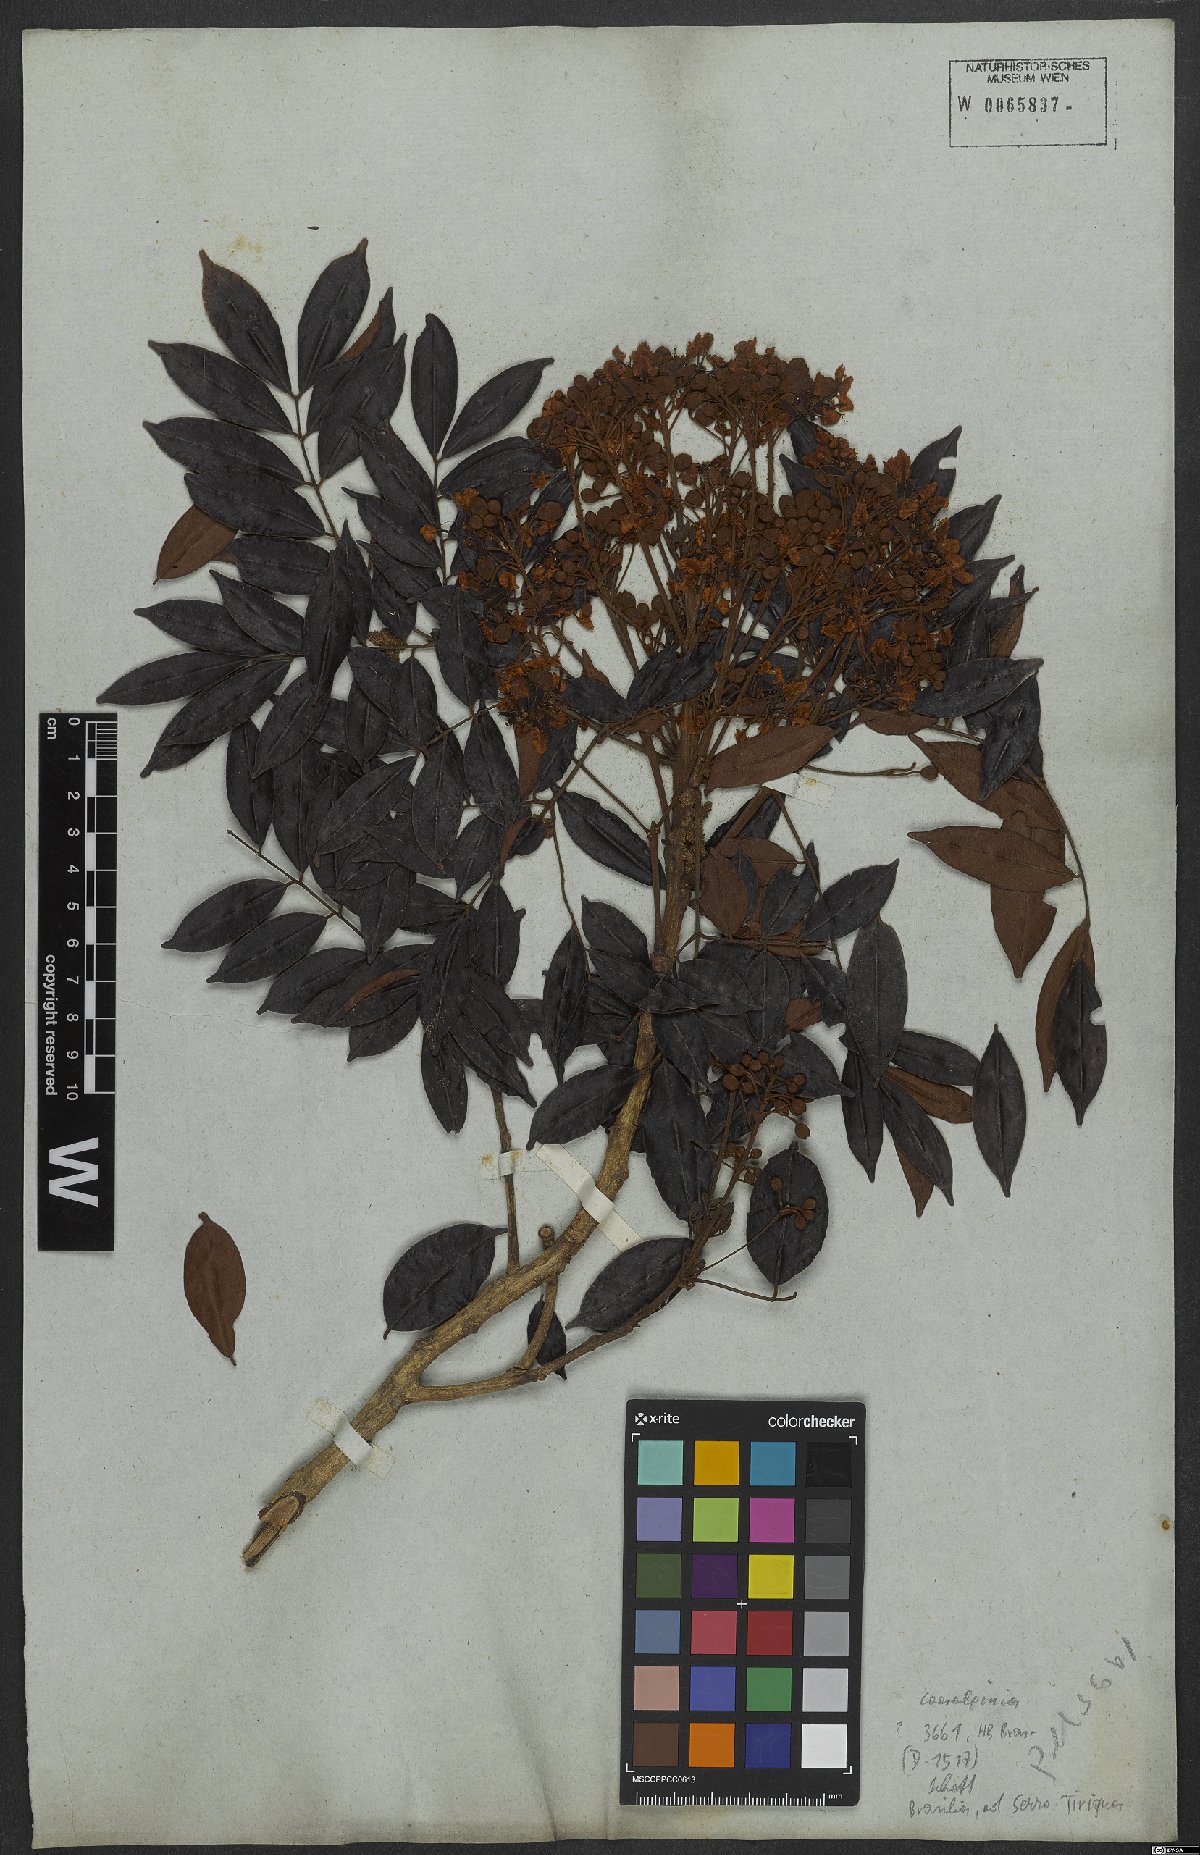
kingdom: Plantae
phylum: Tracheophyta
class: Magnoliopsida
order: Fabales
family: Fabaceae
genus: Caesalpinia
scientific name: Caesalpinia
